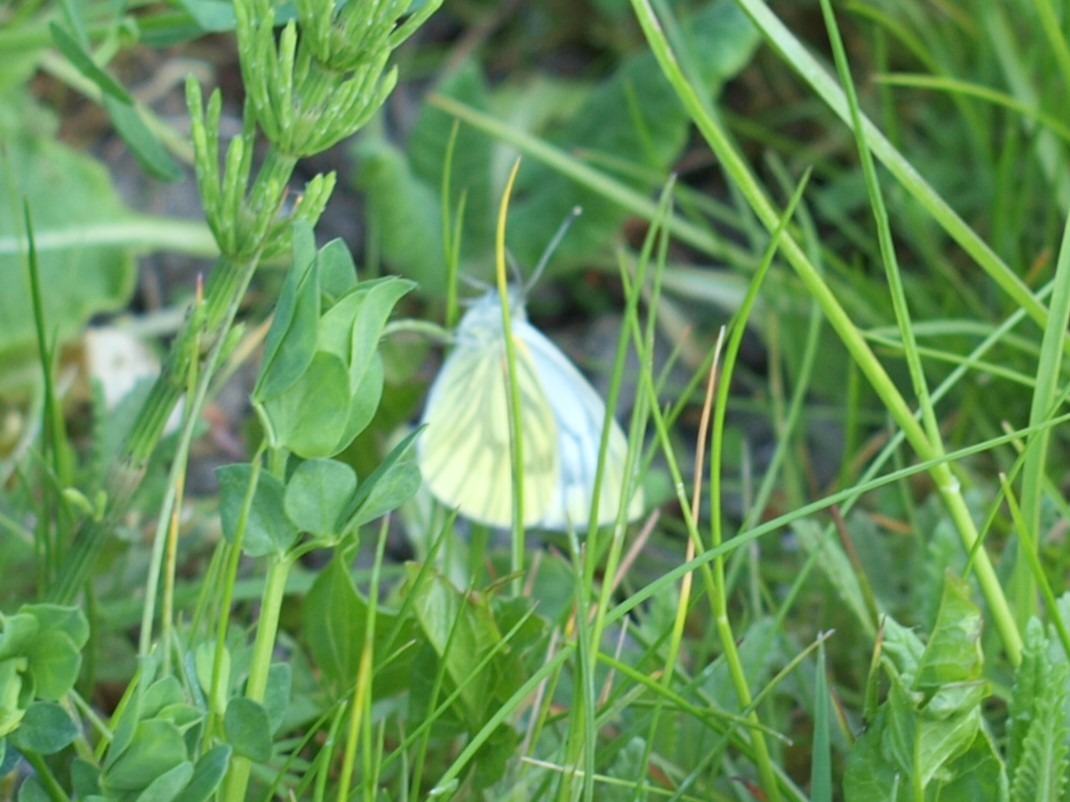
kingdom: Animalia
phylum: Arthropoda
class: Insecta
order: Lepidoptera
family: Pieridae
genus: Pieris
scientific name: Pieris napi
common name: Grønåret kålsommerfugl
